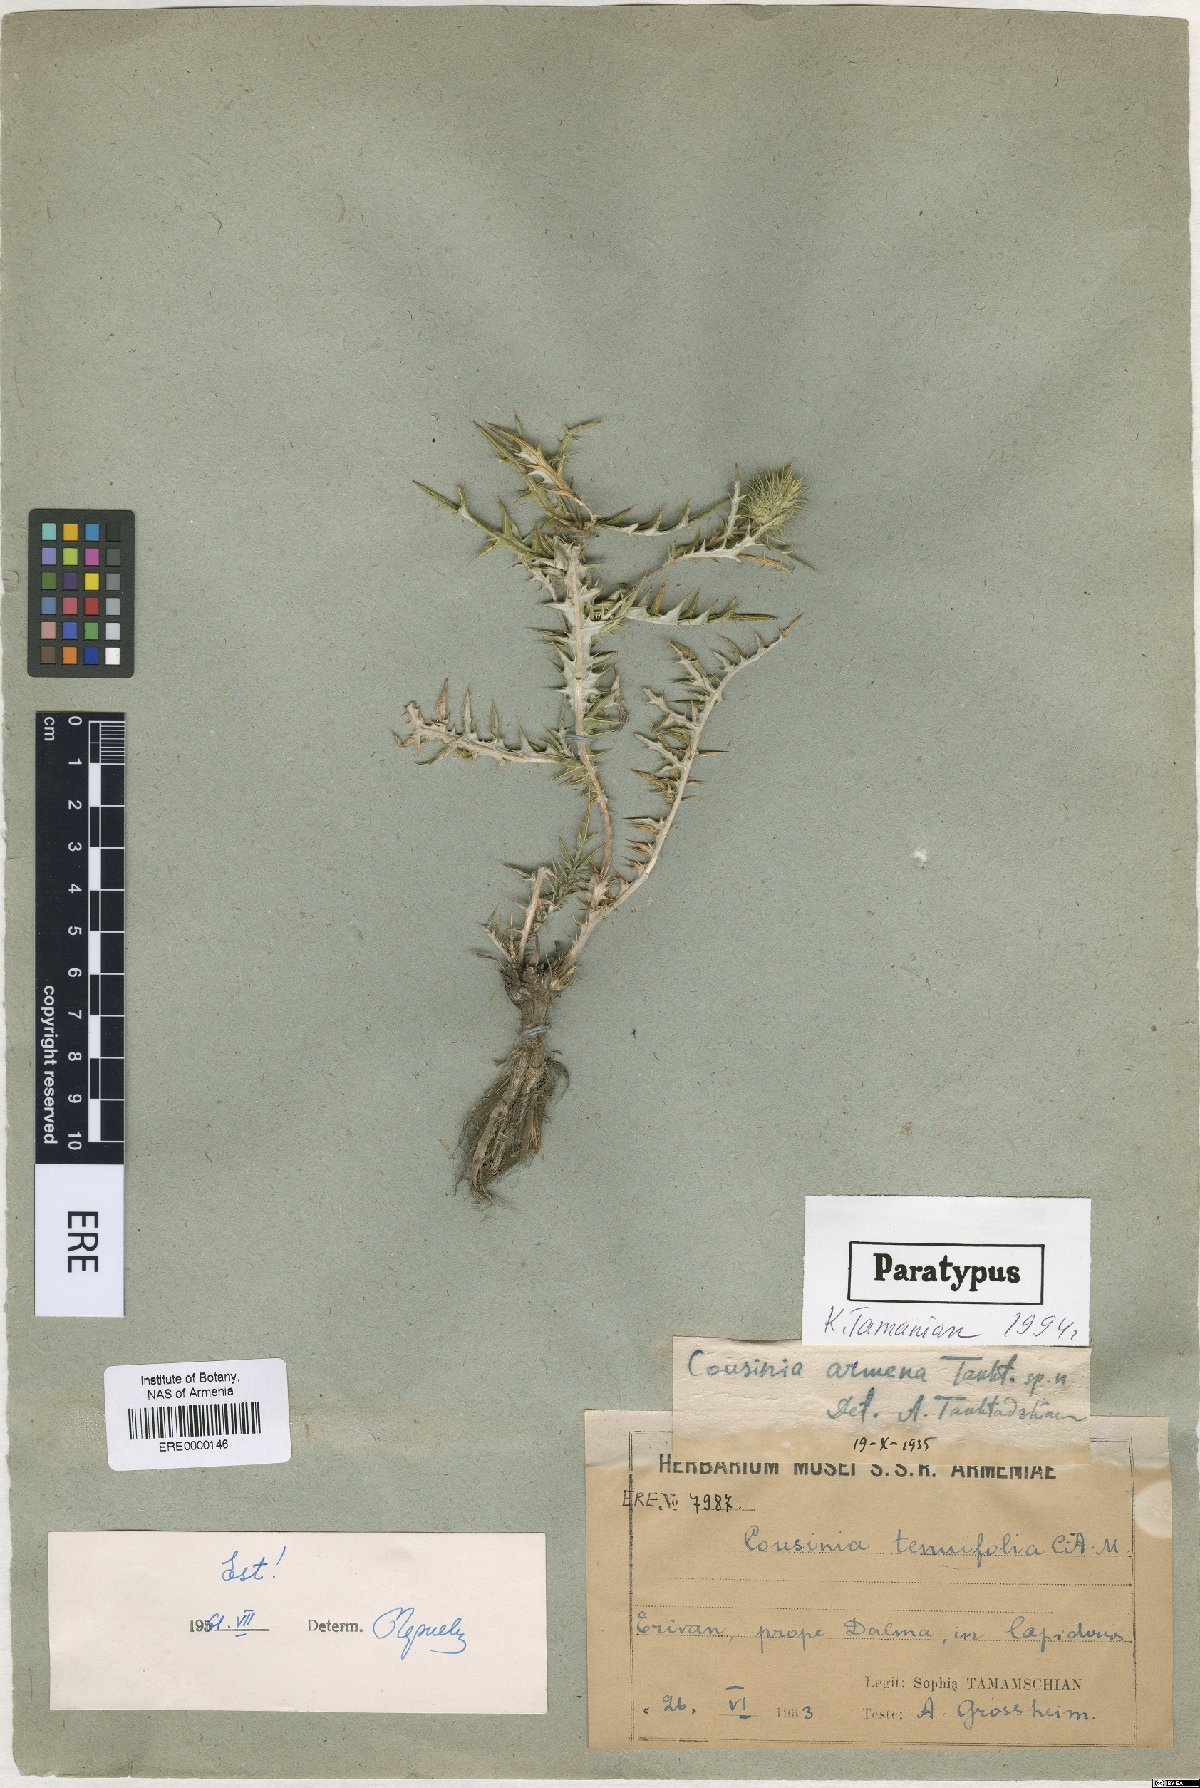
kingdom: Plantae
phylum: Tracheophyta
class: Magnoliopsida
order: Asterales
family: Asteraceae
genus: Cousinia
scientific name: Cousinia armena
